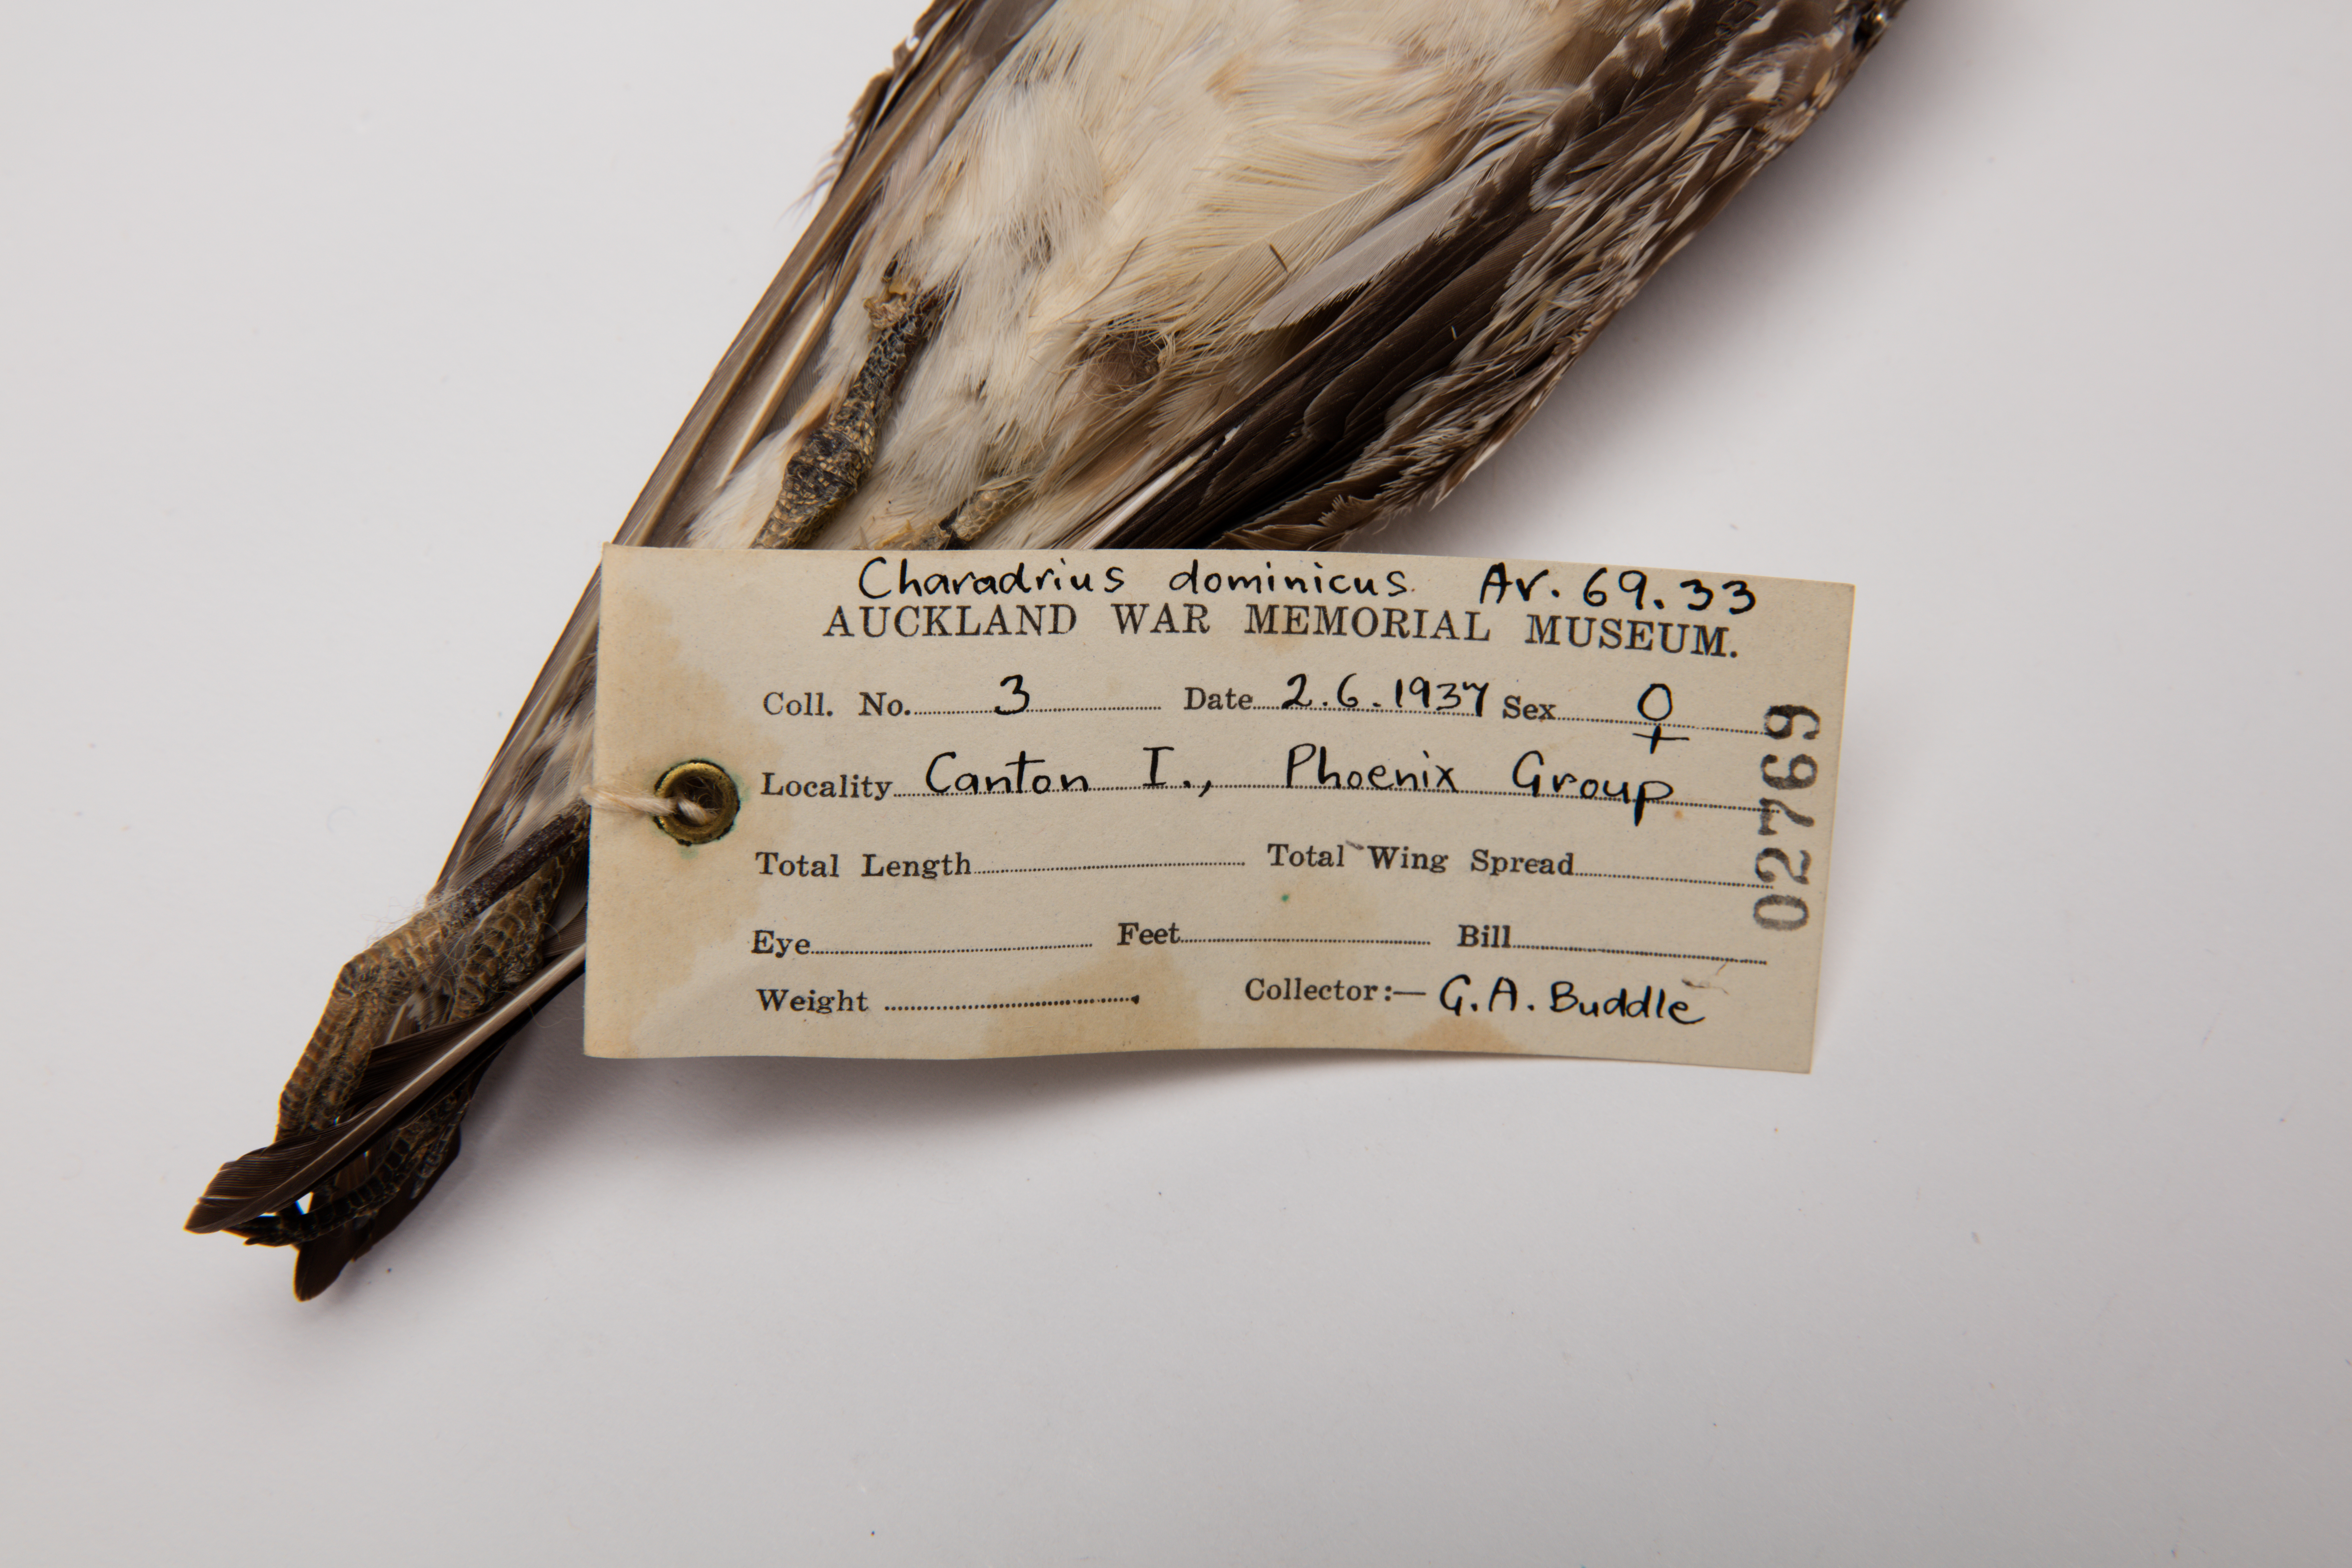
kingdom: Animalia
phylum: Chordata
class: Aves
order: Charadriiformes
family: Charadriidae
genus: Pluvialis
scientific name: Pluvialis fulva
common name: Pacific golden plover
